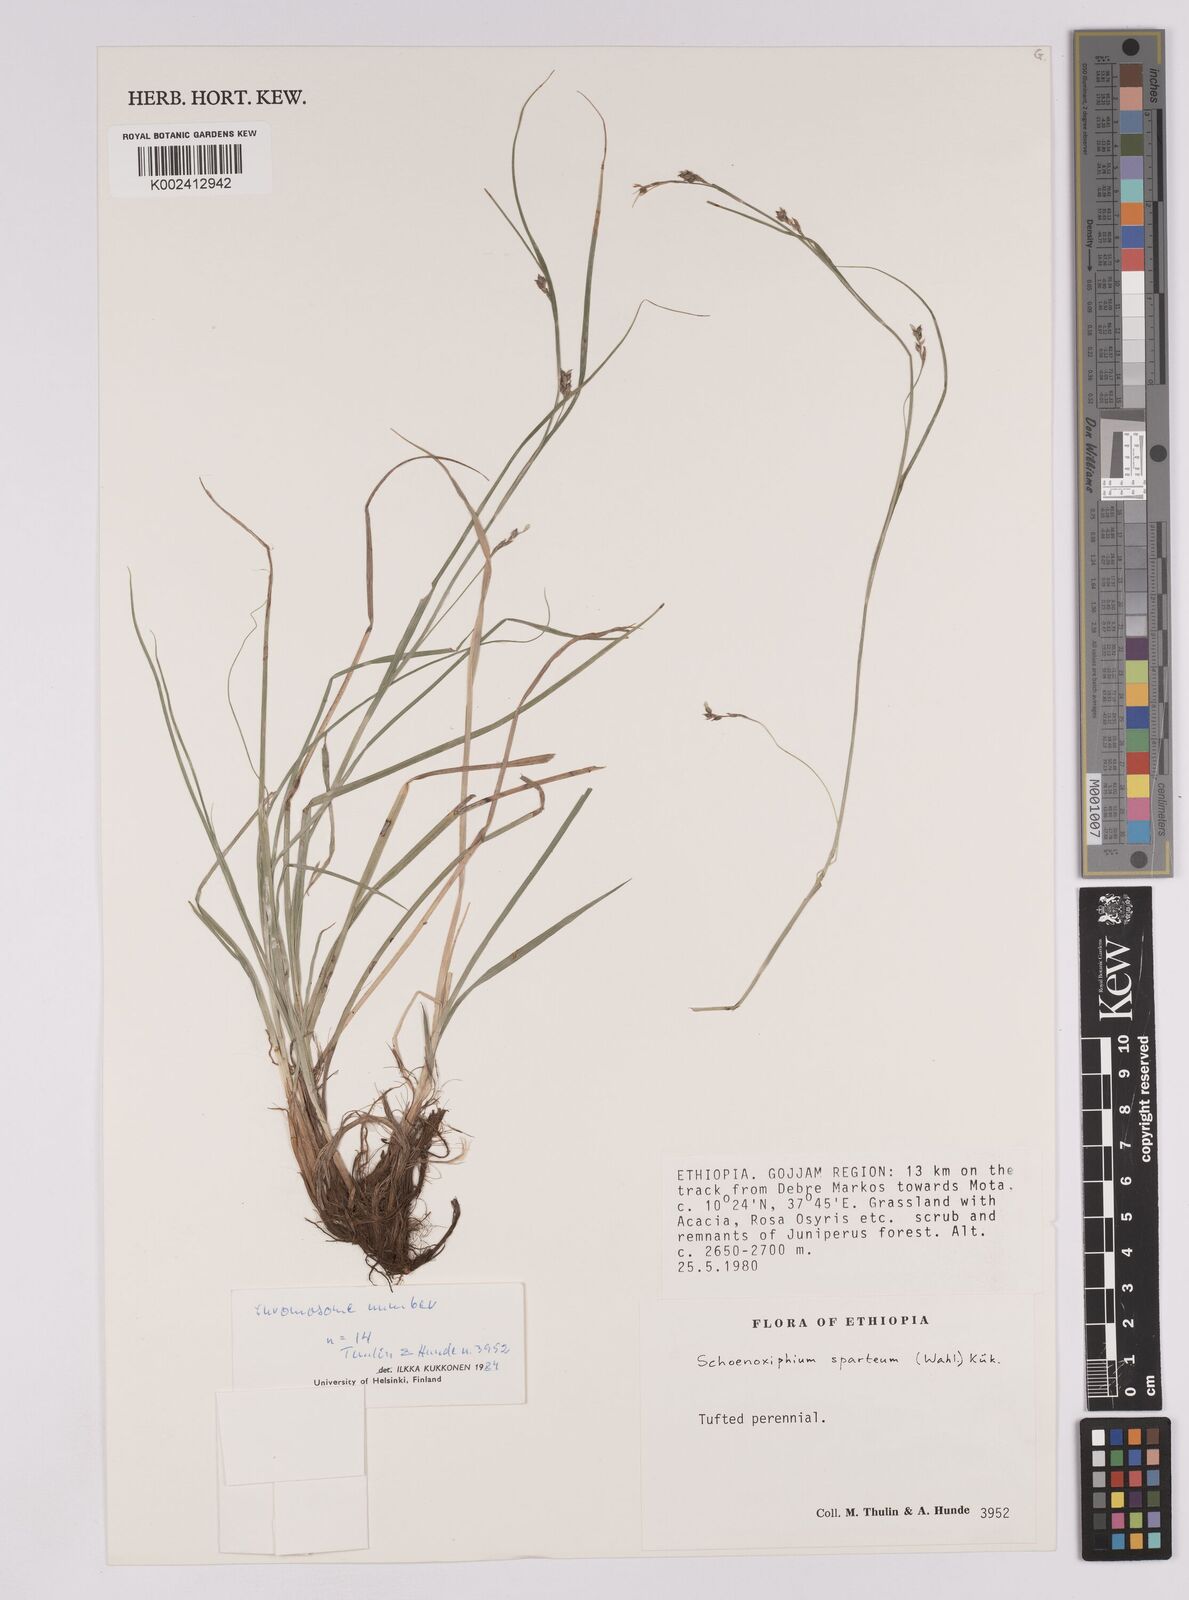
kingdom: Plantae
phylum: Tracheophyta
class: Liliopsida
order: Poales
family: Cyperaceae
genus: Carex
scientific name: Carex spartea
